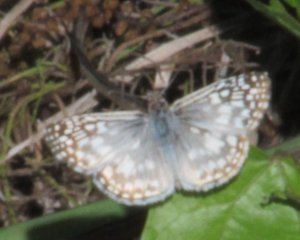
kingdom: Animalia
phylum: Arthropoda
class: Insecta
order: Lepidoptera
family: Hesperiidae
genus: Pyrgus
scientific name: Pyrgus oileus
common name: Tropical Checkered-Skipper
